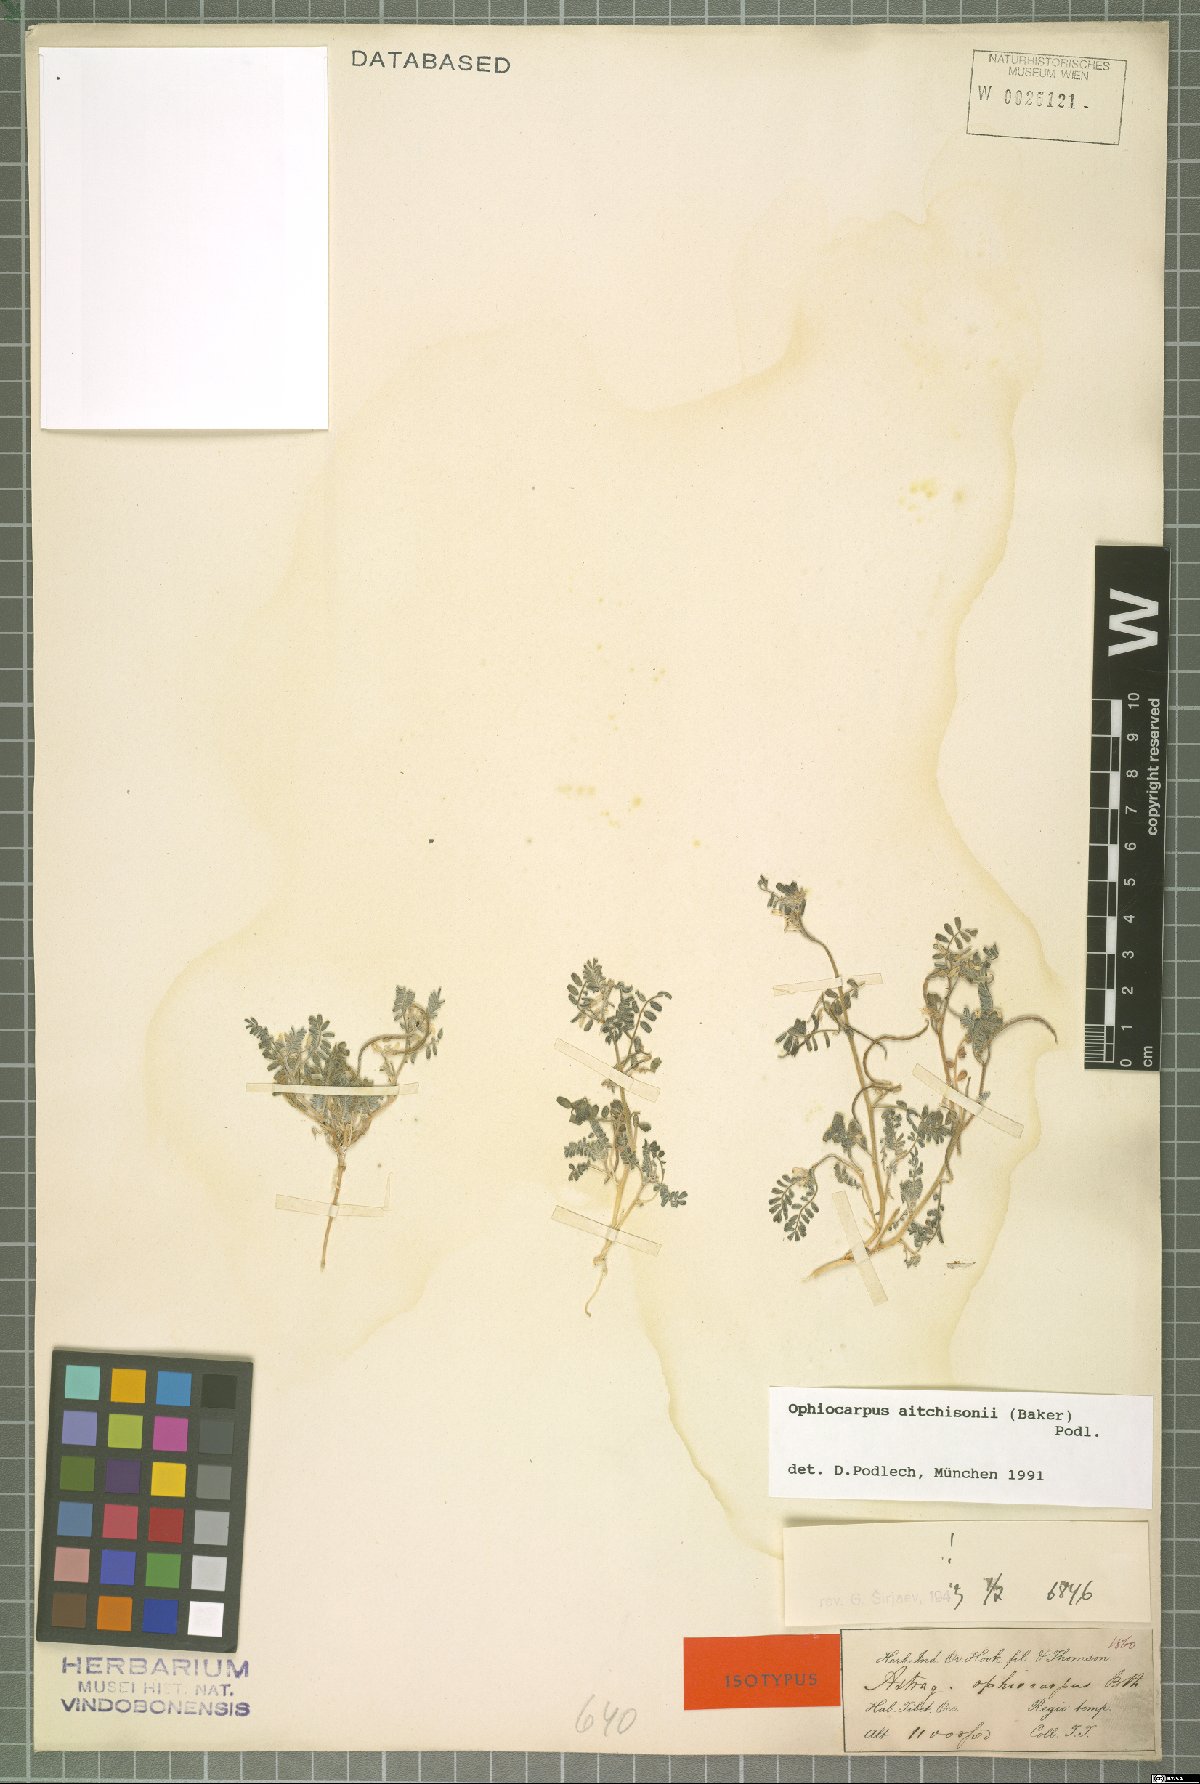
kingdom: Plantae
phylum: Tracheophyta
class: Magnoliopsida
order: Fabales
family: Fabaceae
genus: Astragalus
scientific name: Astragalus ophiocarpus
